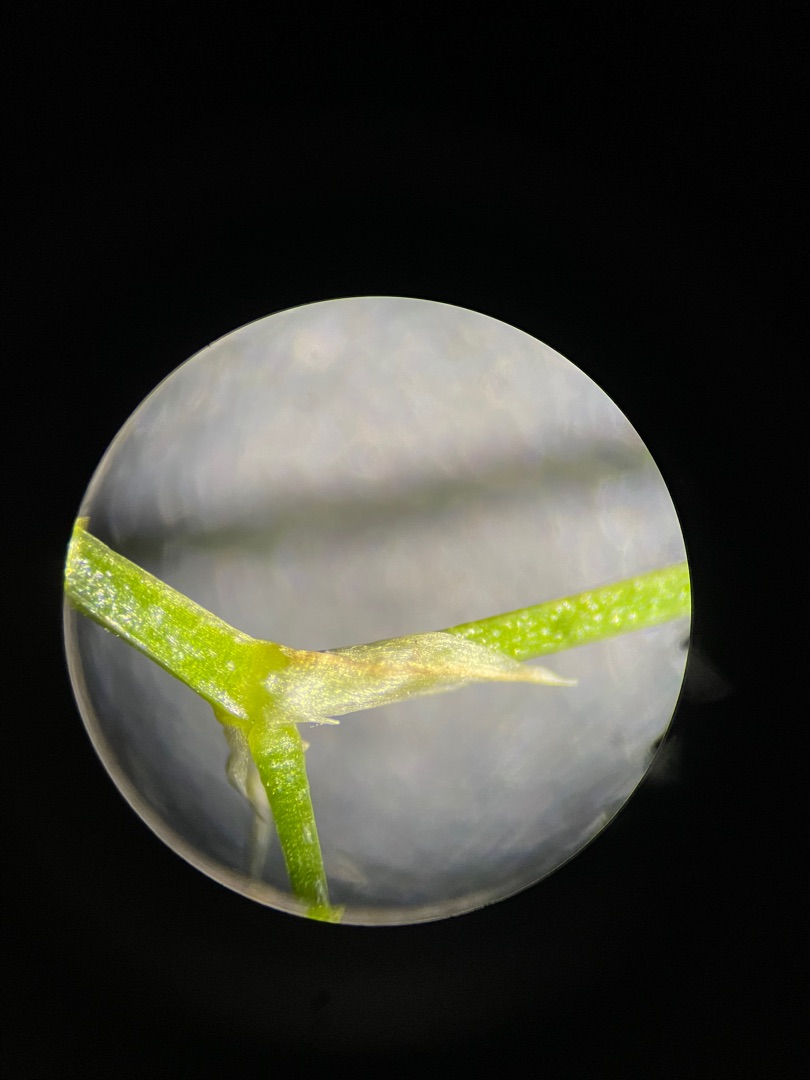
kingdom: Plantae
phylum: Tracheophyta
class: Magnoliopsida
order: Caryophyllales
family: Caryophyllaceae
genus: Stellaria
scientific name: Stellaria graminea
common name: Græsbladet fladstjerne
